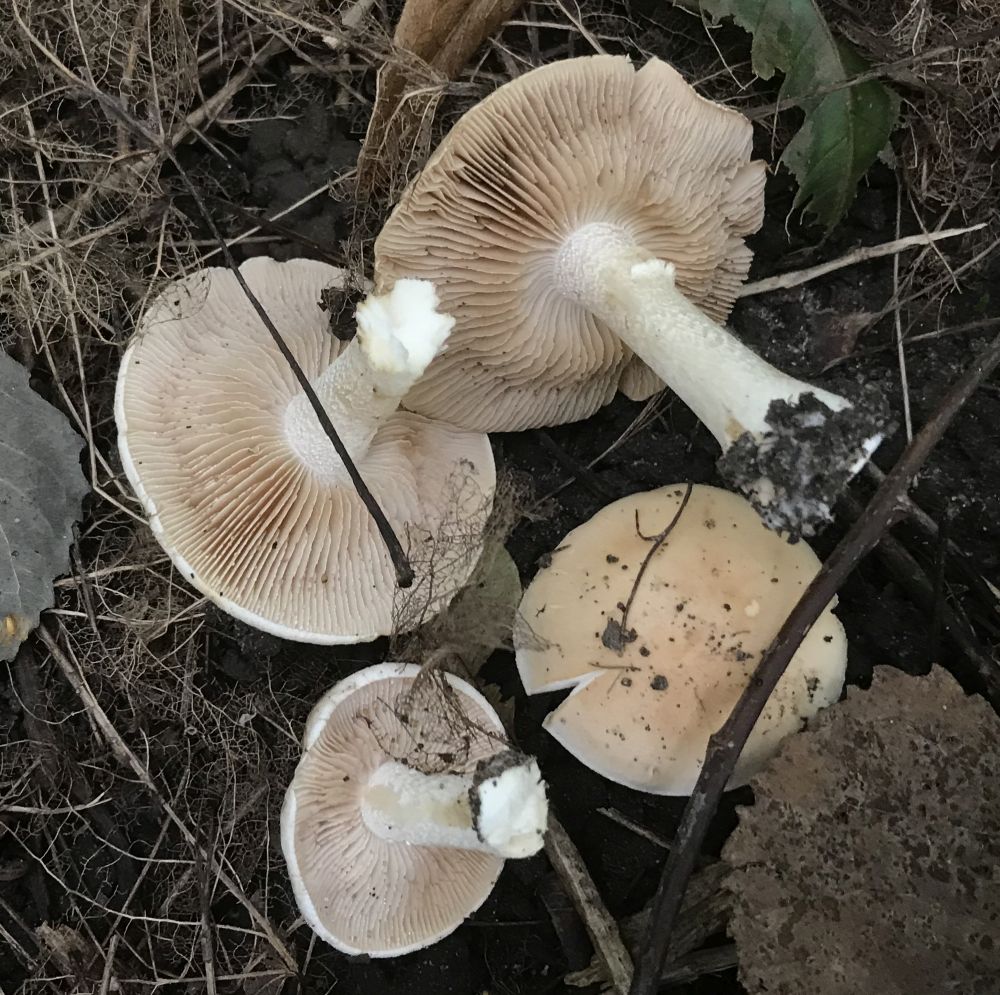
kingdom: Fungi
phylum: Basidiomycota
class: Agaricomycetes
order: Agaricales
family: Hymenogastraceae
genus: Hebeloma
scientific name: Hebeloma
